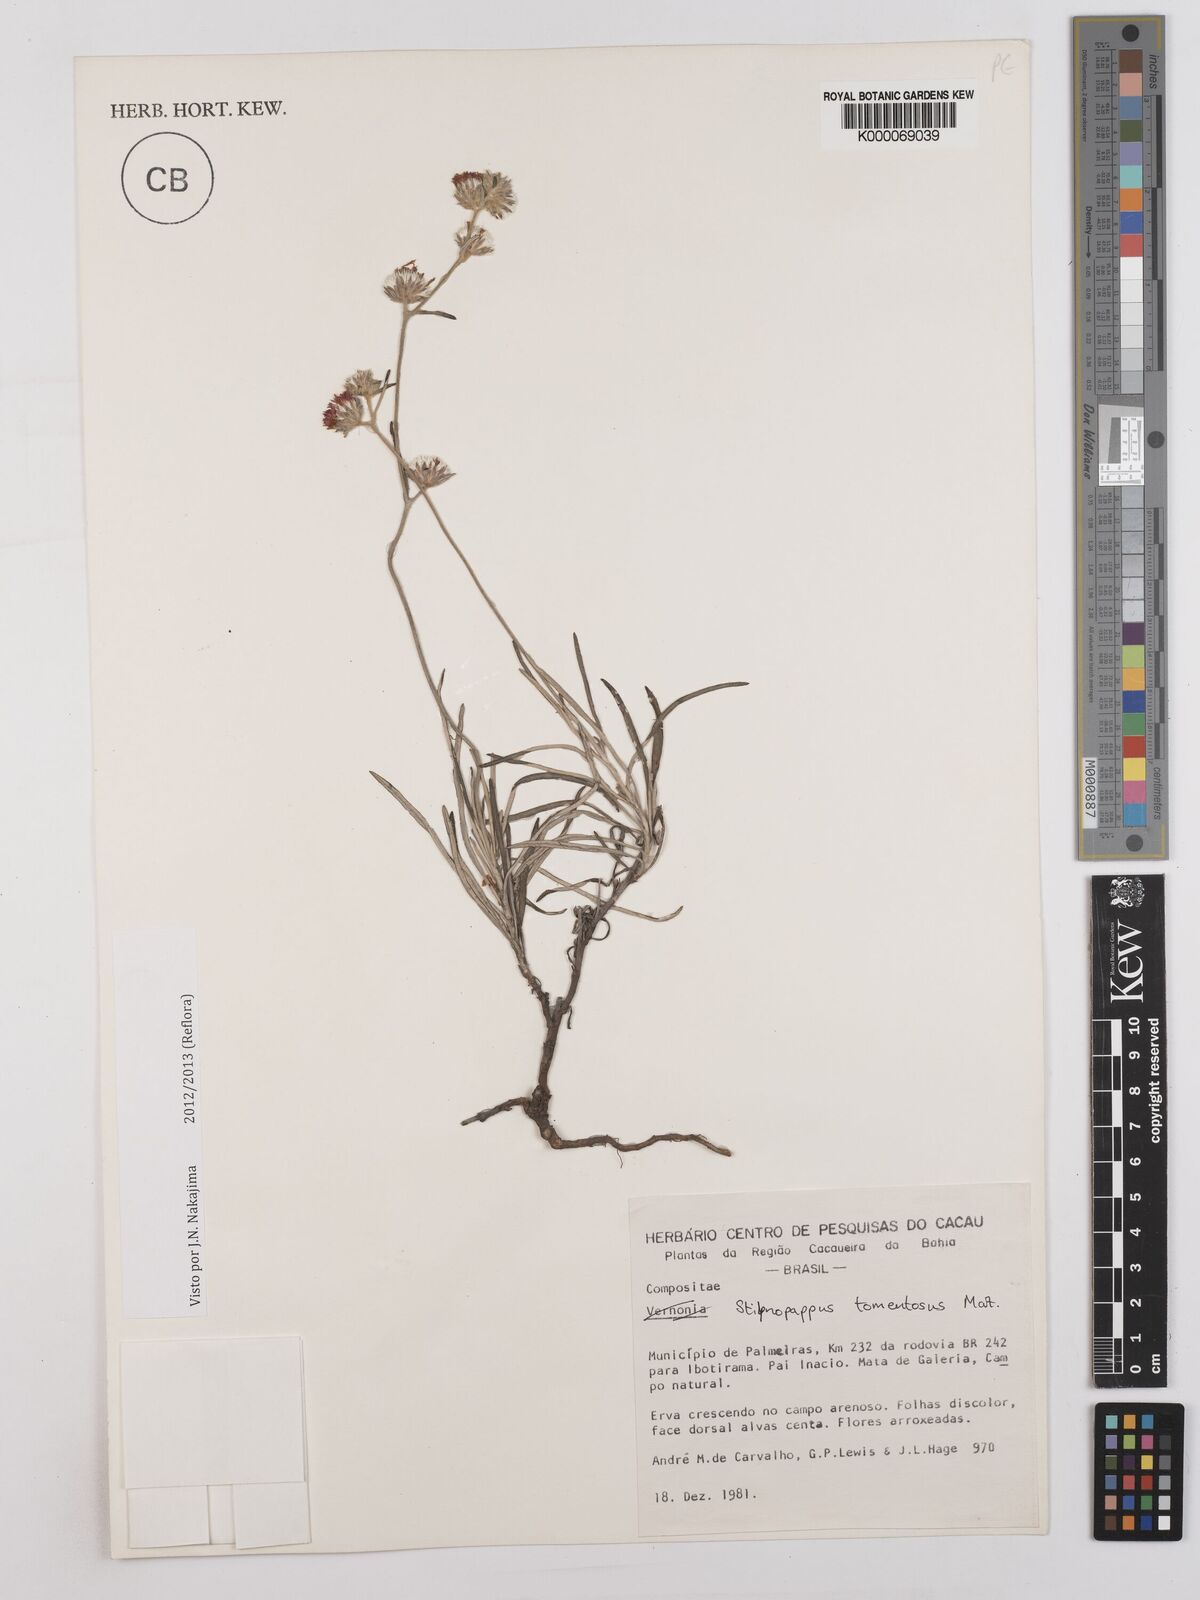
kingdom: Plantae
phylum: Tracheophyta
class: Magnoliopsida
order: Asterales
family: Asteraceae
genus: Stilpnopappus
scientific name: Stilpnopappus tomentosus
